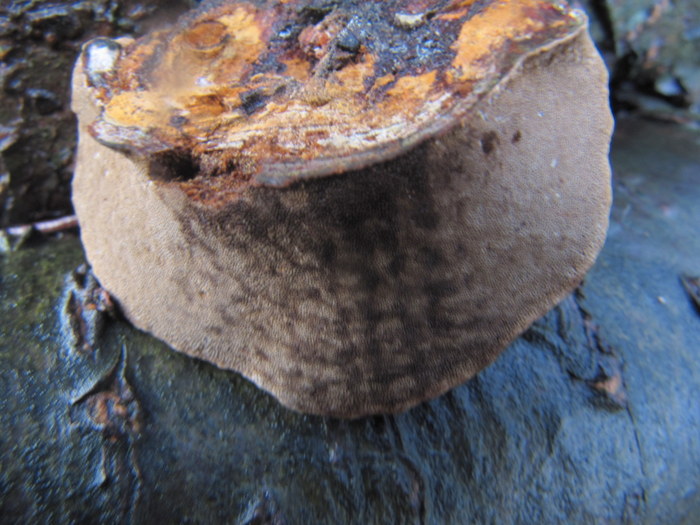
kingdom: Fungi
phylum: Basidiomycota
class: Agaricomycetes
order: Polyporales
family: Polyporaceae
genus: Fomes
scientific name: Fomes fomentarius
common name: tøndersvamp
